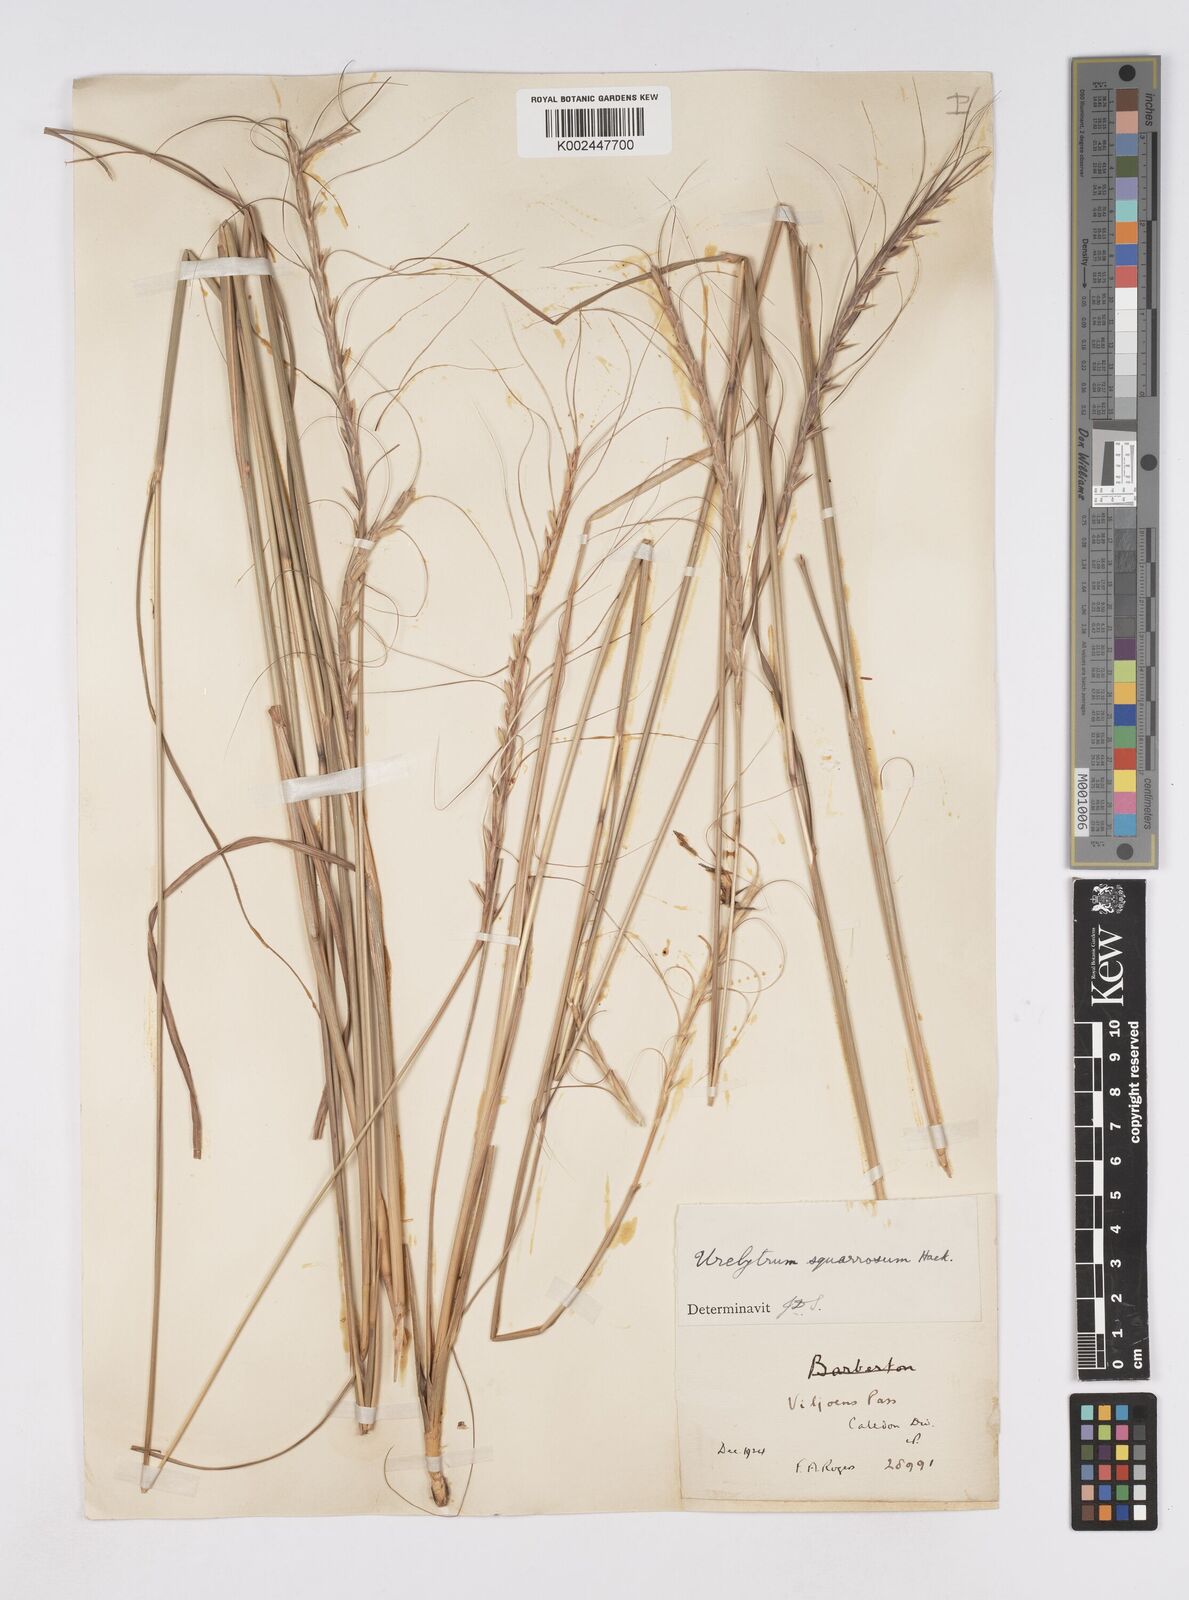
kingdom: Plantae
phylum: Tracheophyta
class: Liliopsida
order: Poales
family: Poaceae
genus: Urelytrum
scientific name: Urelytrum agropyroides
